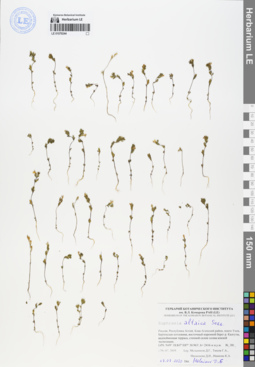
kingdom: Plantae
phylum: Tracheophyta
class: Magnoliopsida
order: Lamiales
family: Orobanchaceae
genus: Euphrasia
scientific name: Euphrasia altaica
